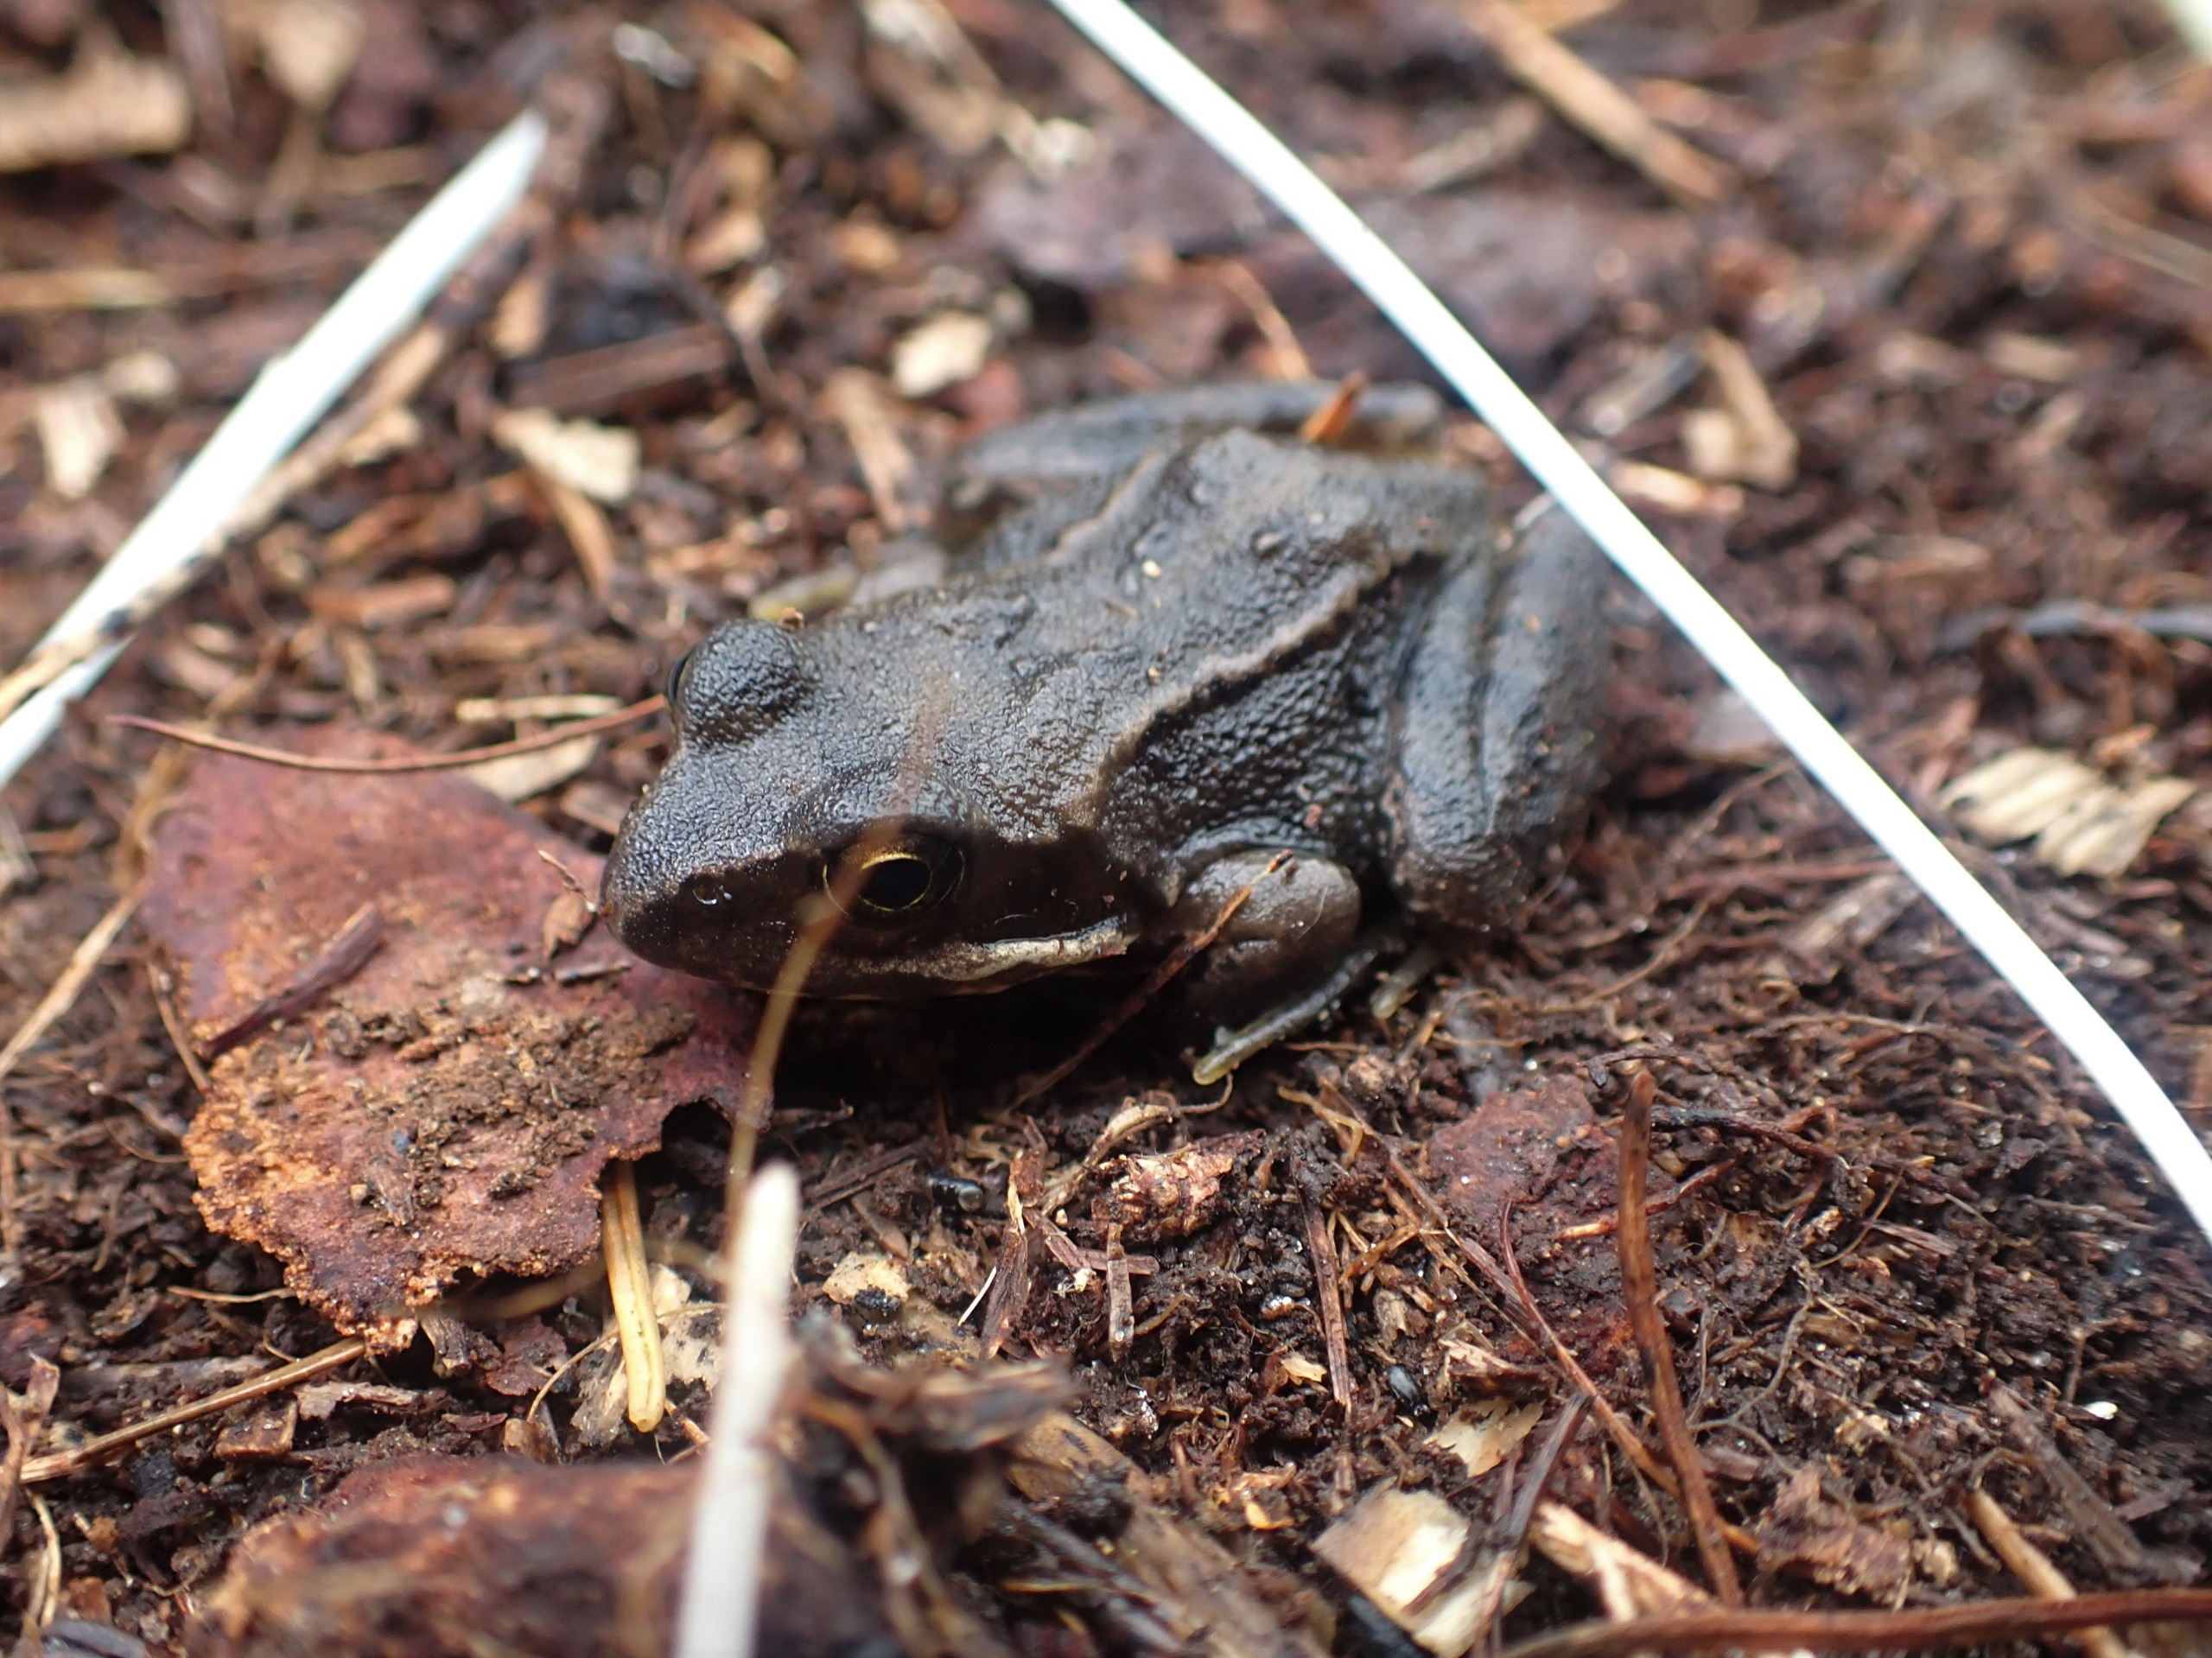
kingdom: Animalia
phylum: Chordata
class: Amphibia
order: Anura
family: Ranidae
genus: Rana
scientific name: Rana temporaria
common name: Butsnudet frø
